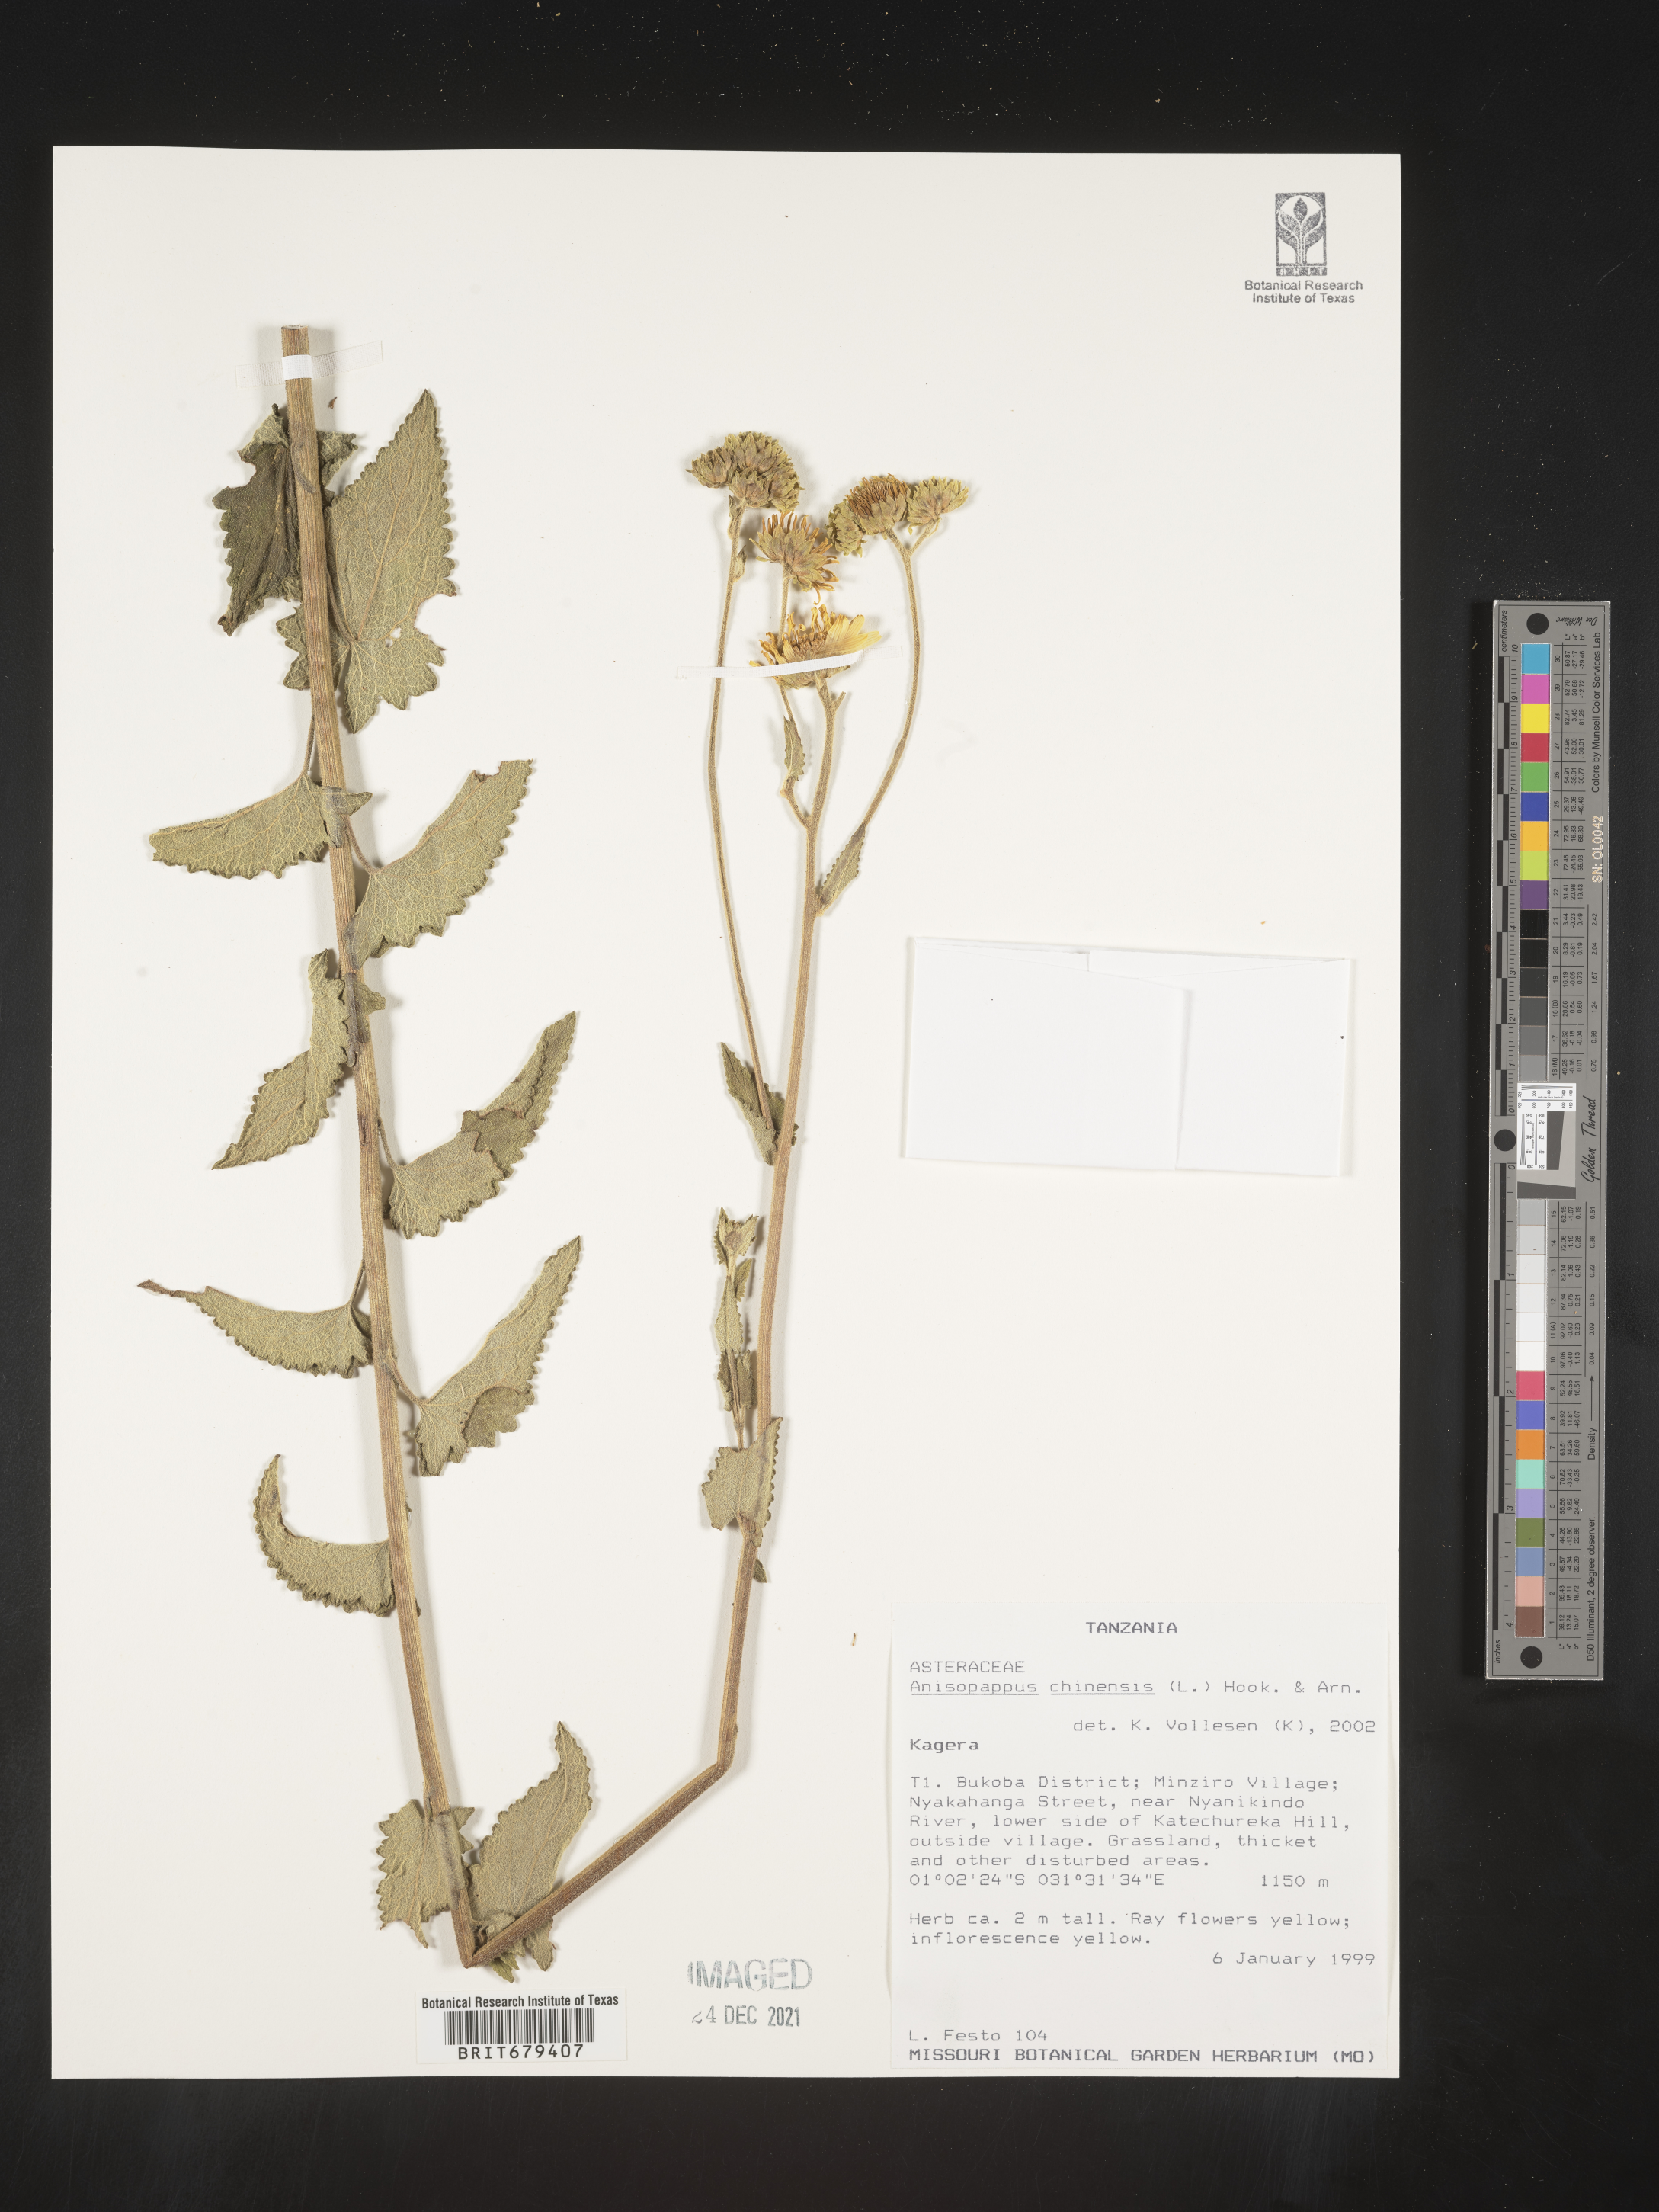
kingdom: Plantae
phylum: Tracheophyta
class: Magnoliopsida
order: Asterales
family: Asteraceae
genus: Anisopappus
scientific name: Anisopappus
